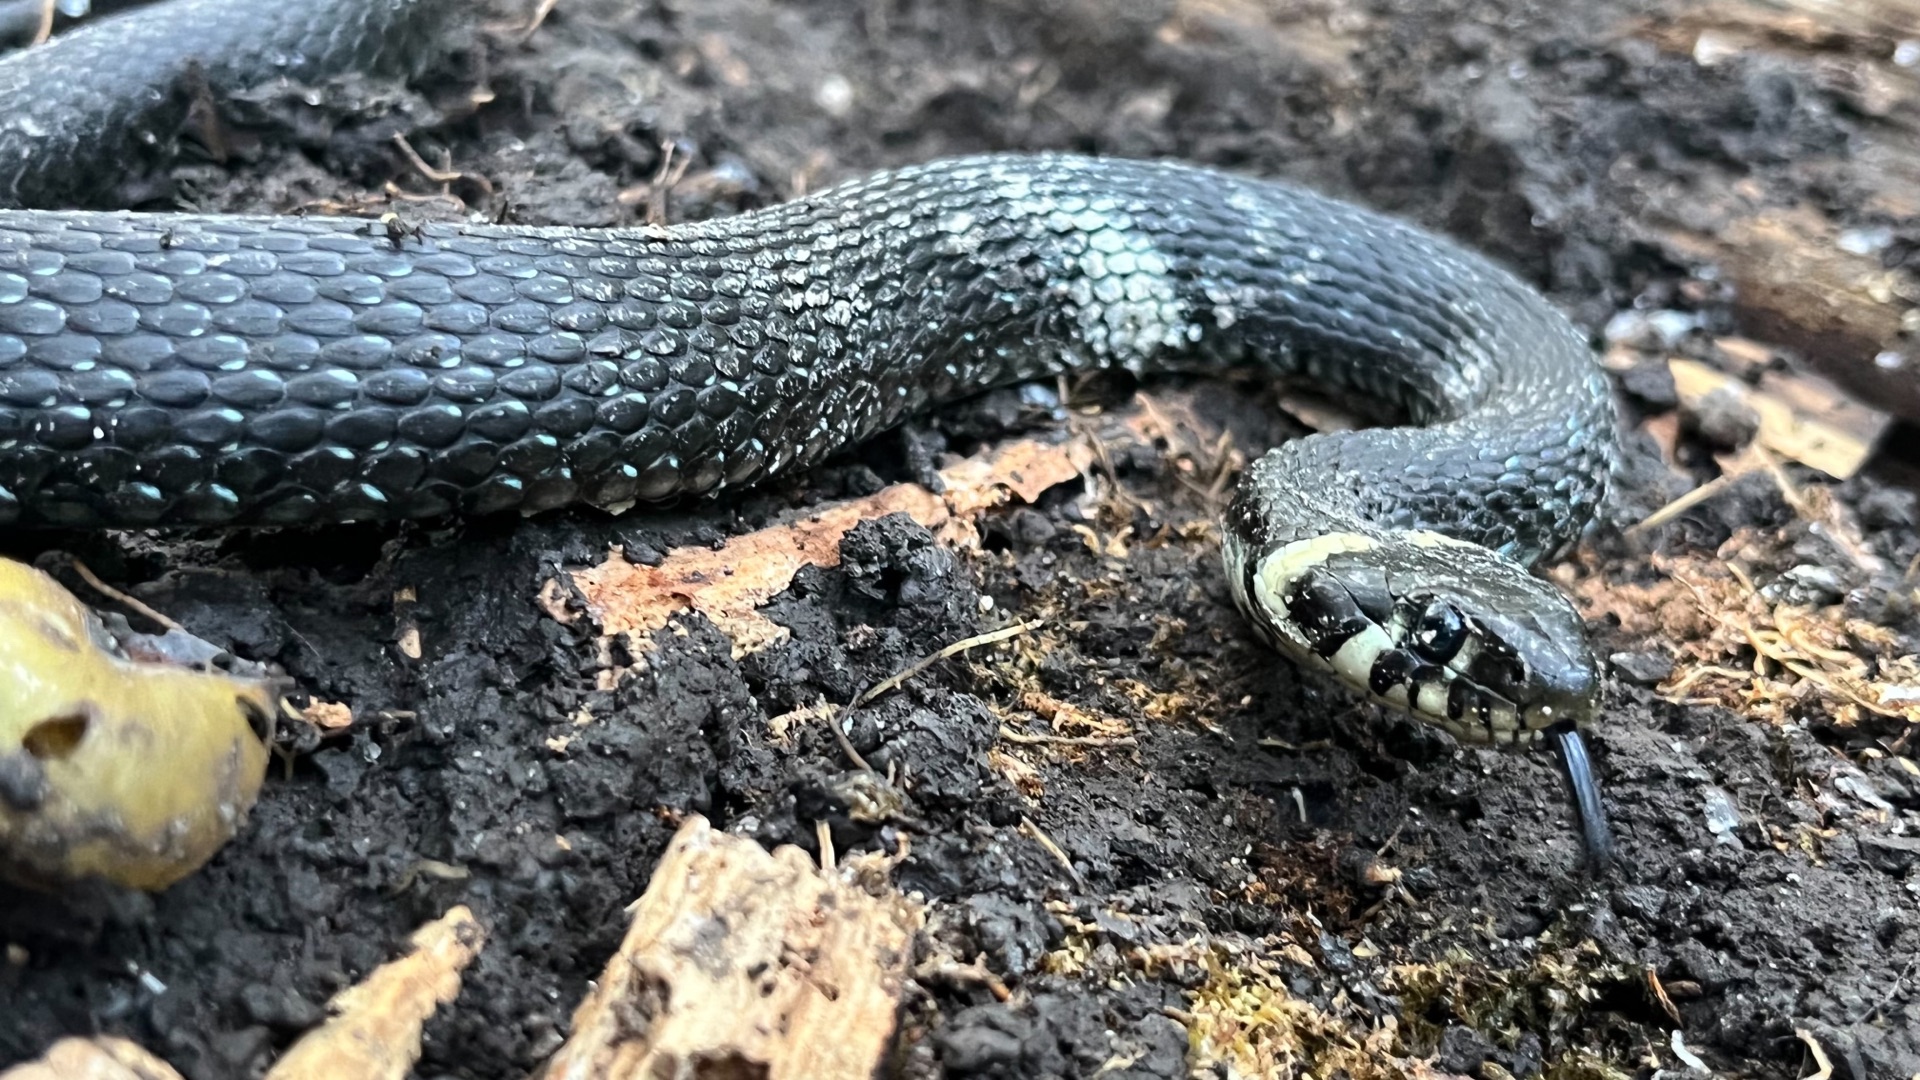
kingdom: Animalia
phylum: Chordata
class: Squamata
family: Colubridae
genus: Natrix
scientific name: Natrix natrix
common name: Snog
